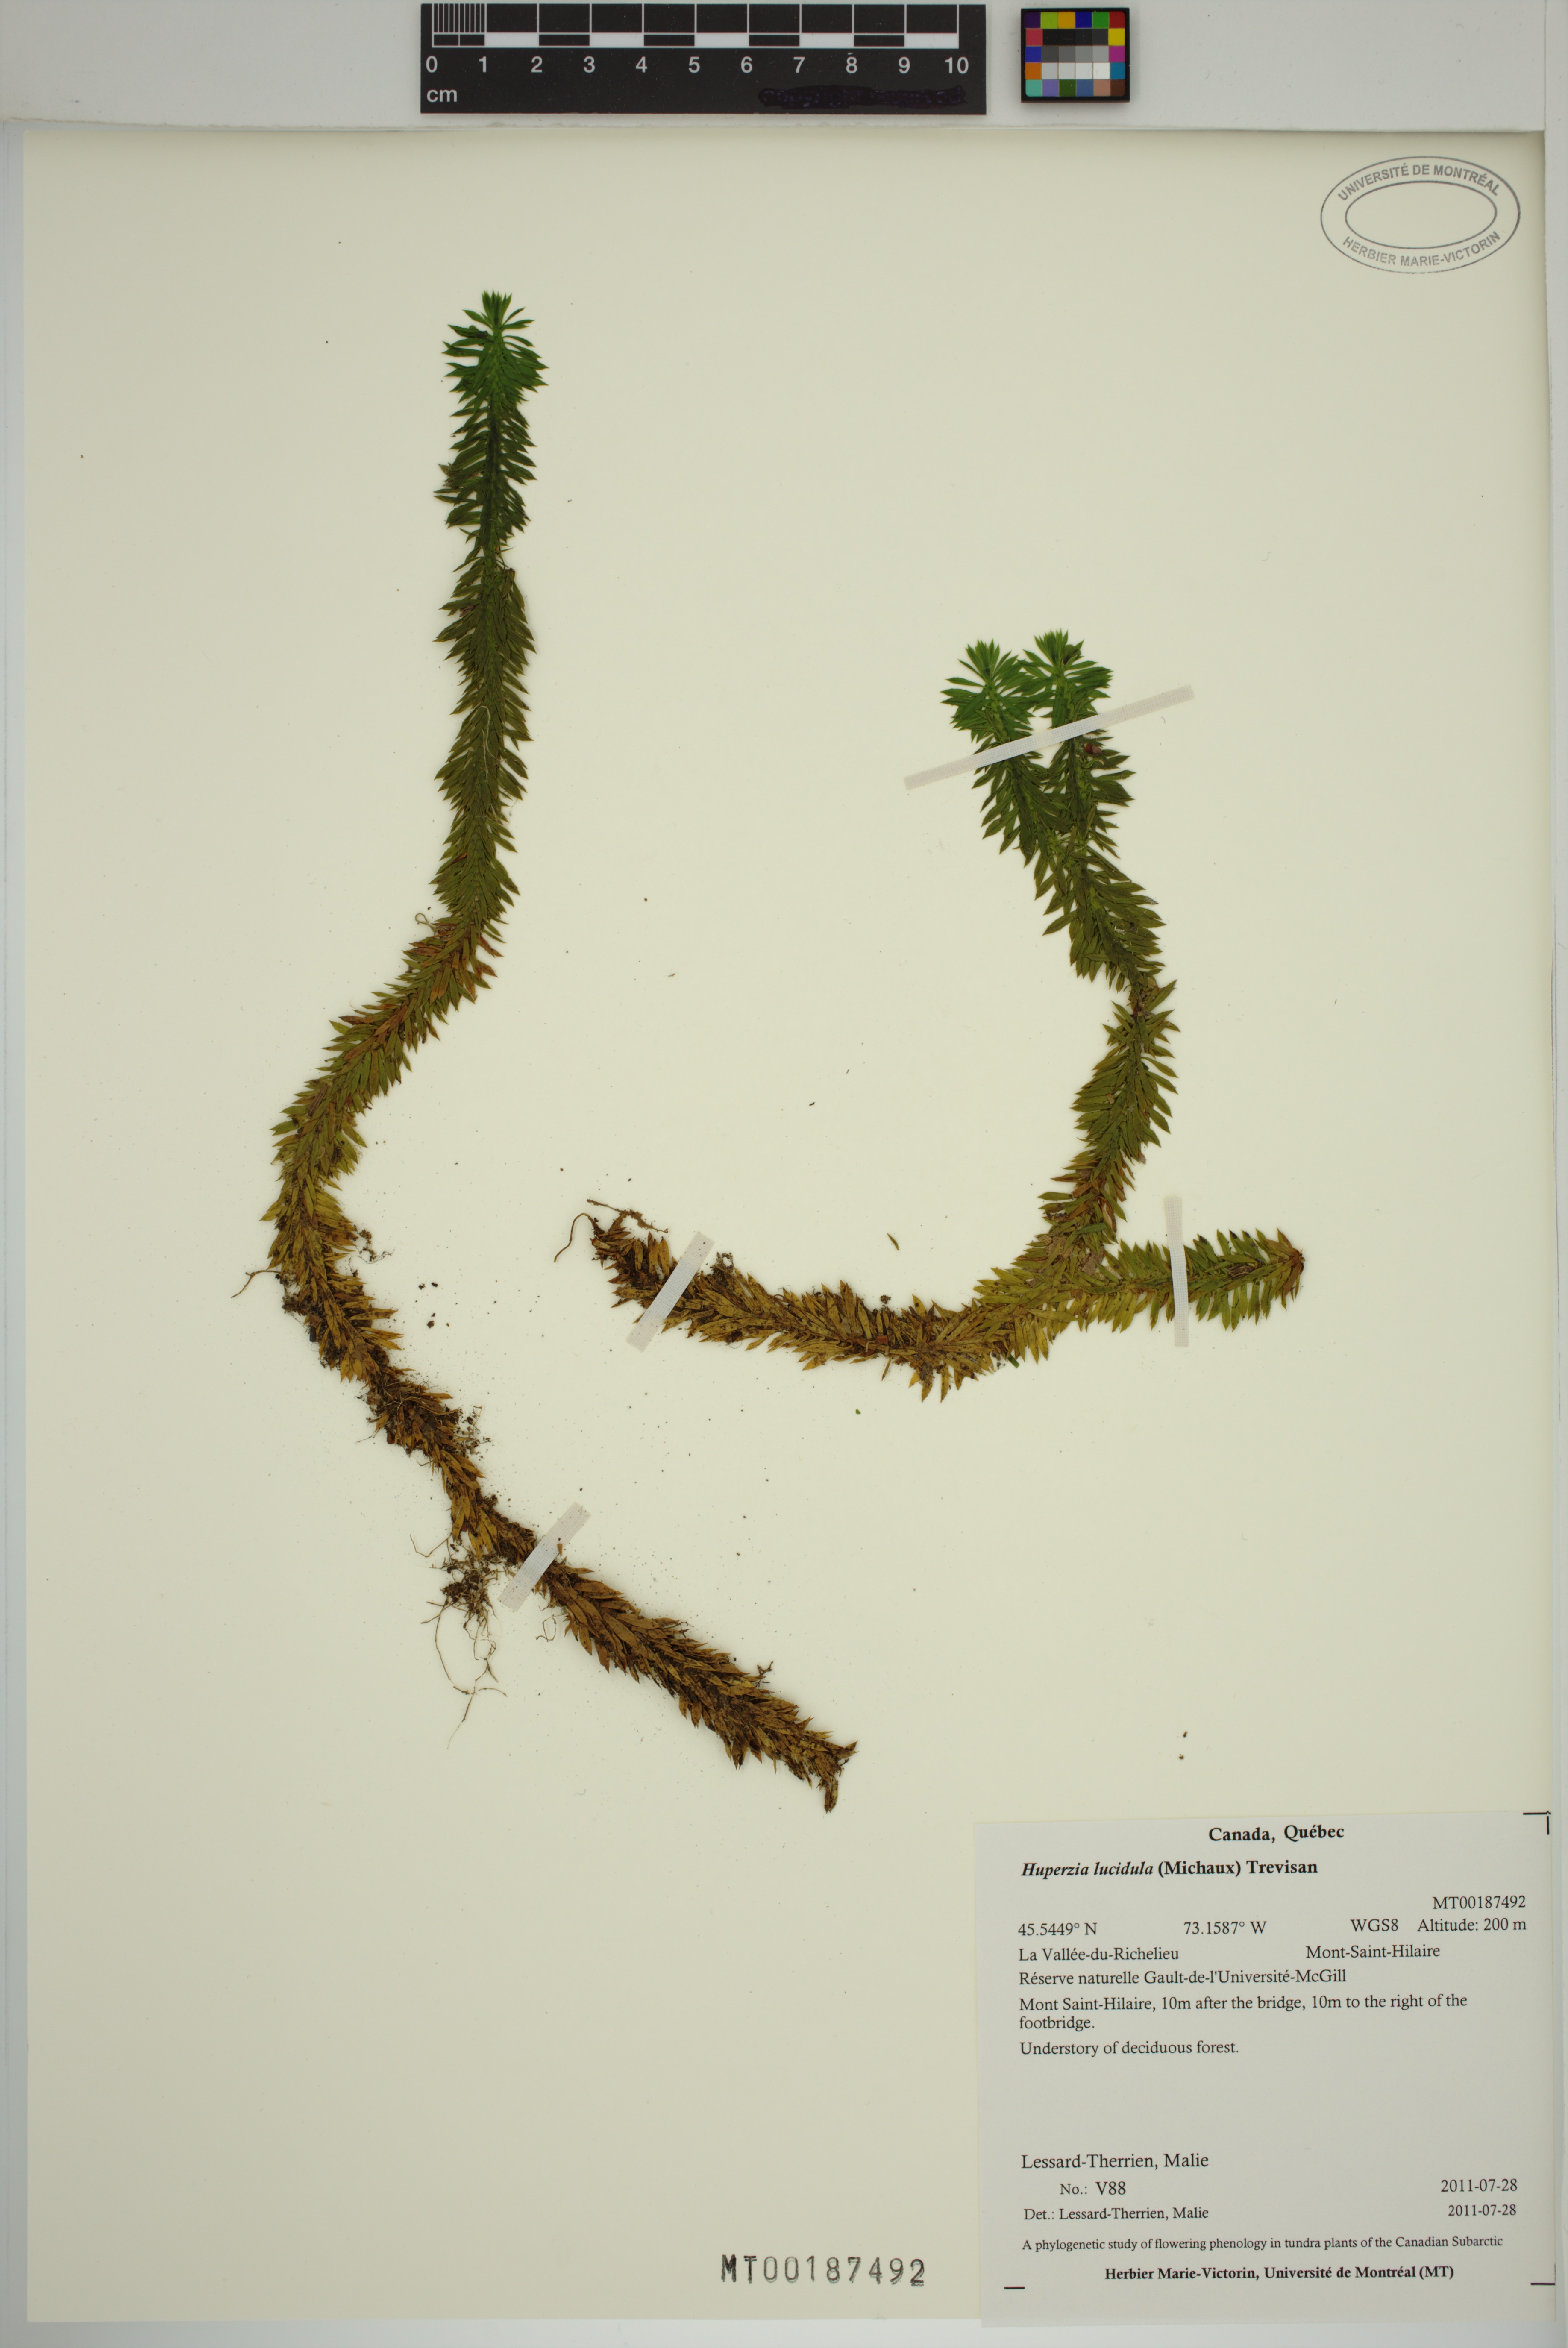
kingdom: Plantae
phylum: Tracheophyta
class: Lycopodiopsida
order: Lycopodiales
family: Lycopodiaceae
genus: Huperzia
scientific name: Huperzia lucidula
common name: Shining clubmoss
